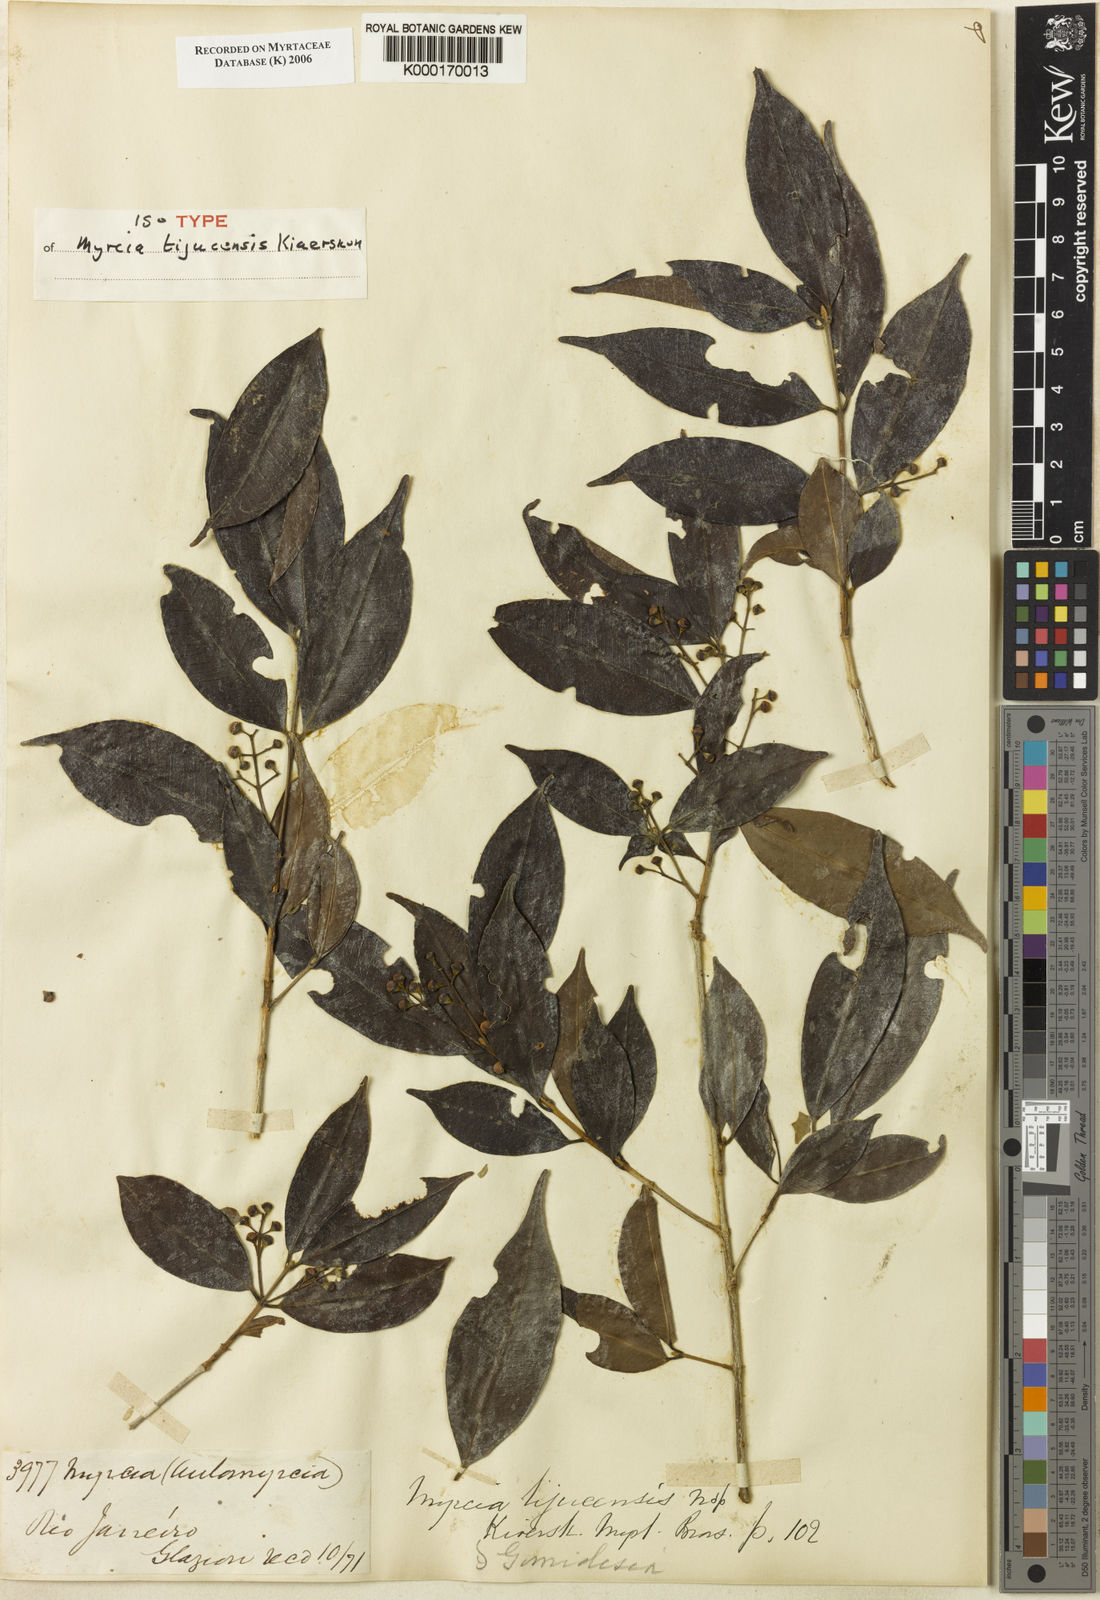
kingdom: Plantae
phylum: Tracheophyta
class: Magnoliopsida
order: Myrtales
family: Myrtaceae
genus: Myrcia
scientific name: Myrcia tijucensis
